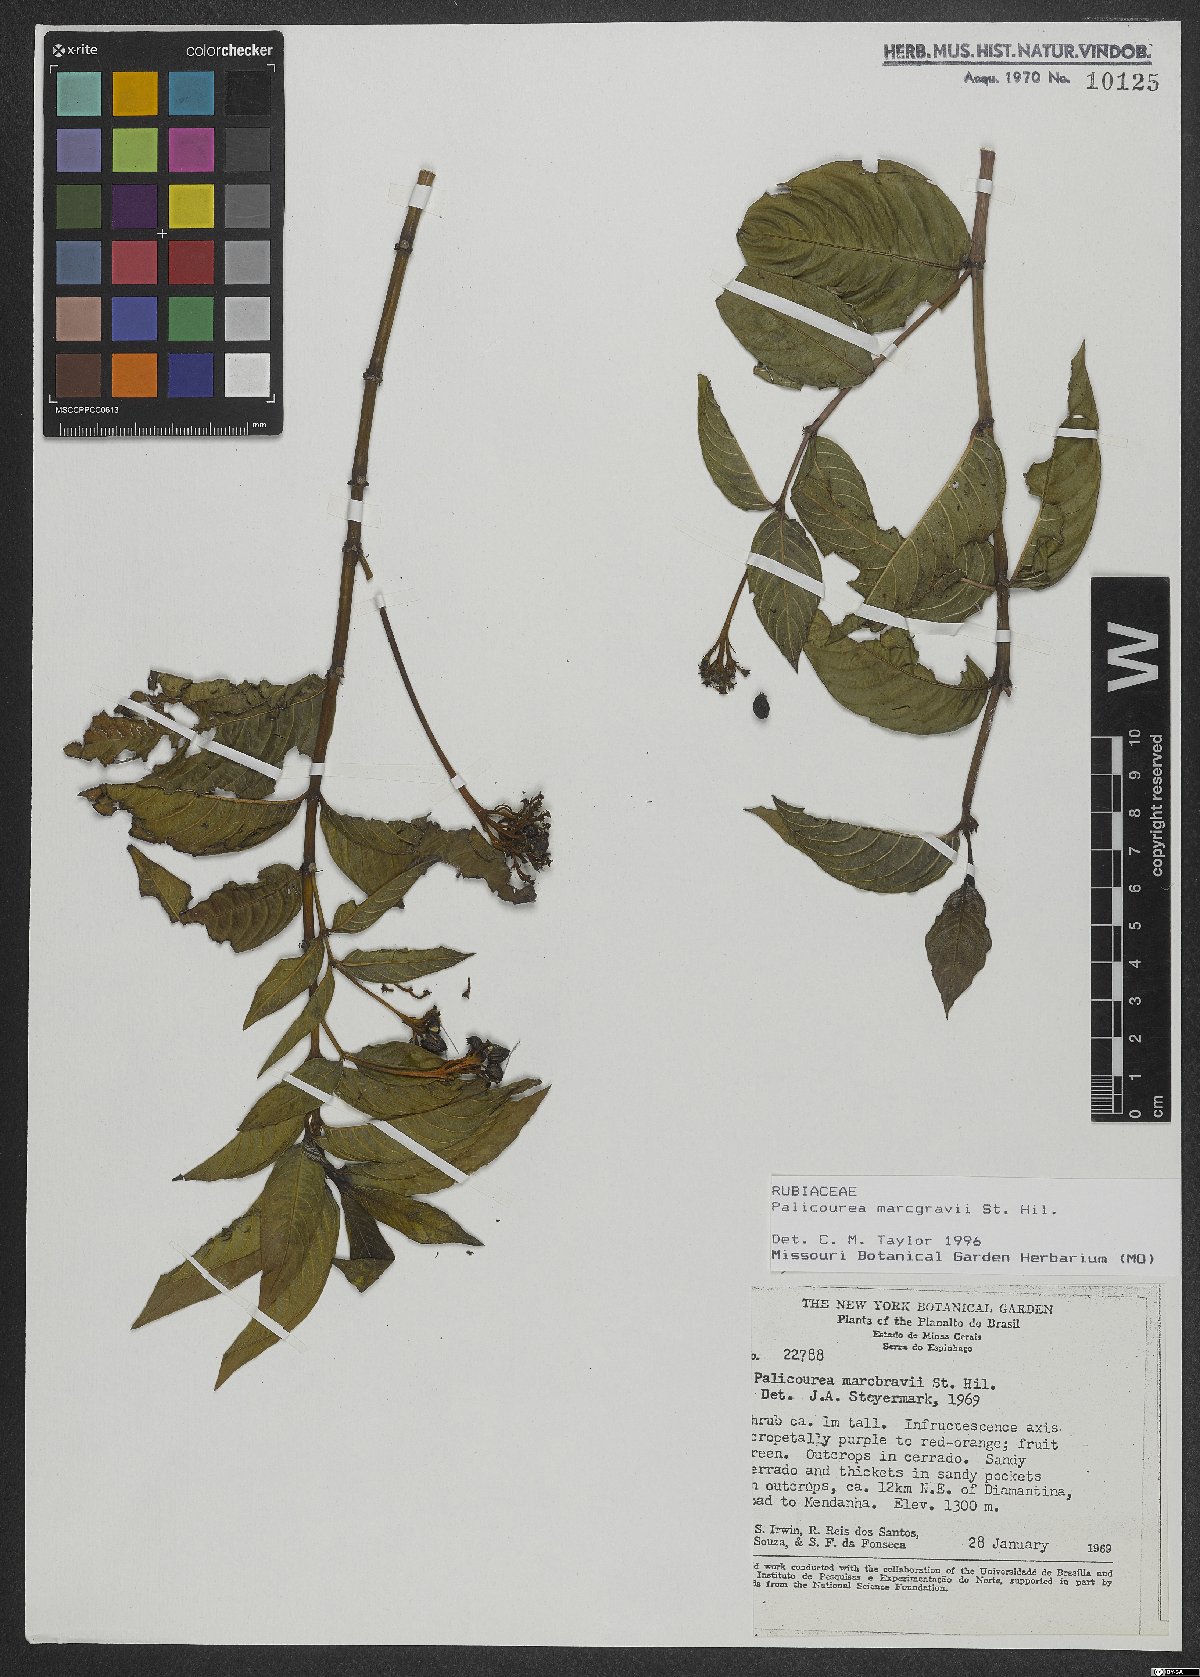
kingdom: Plantae
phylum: Tracheophyta
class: Magnoliopsida
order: Gentianales
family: Rubiaceae
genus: Palicourea
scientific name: Palicourea marcgravii
